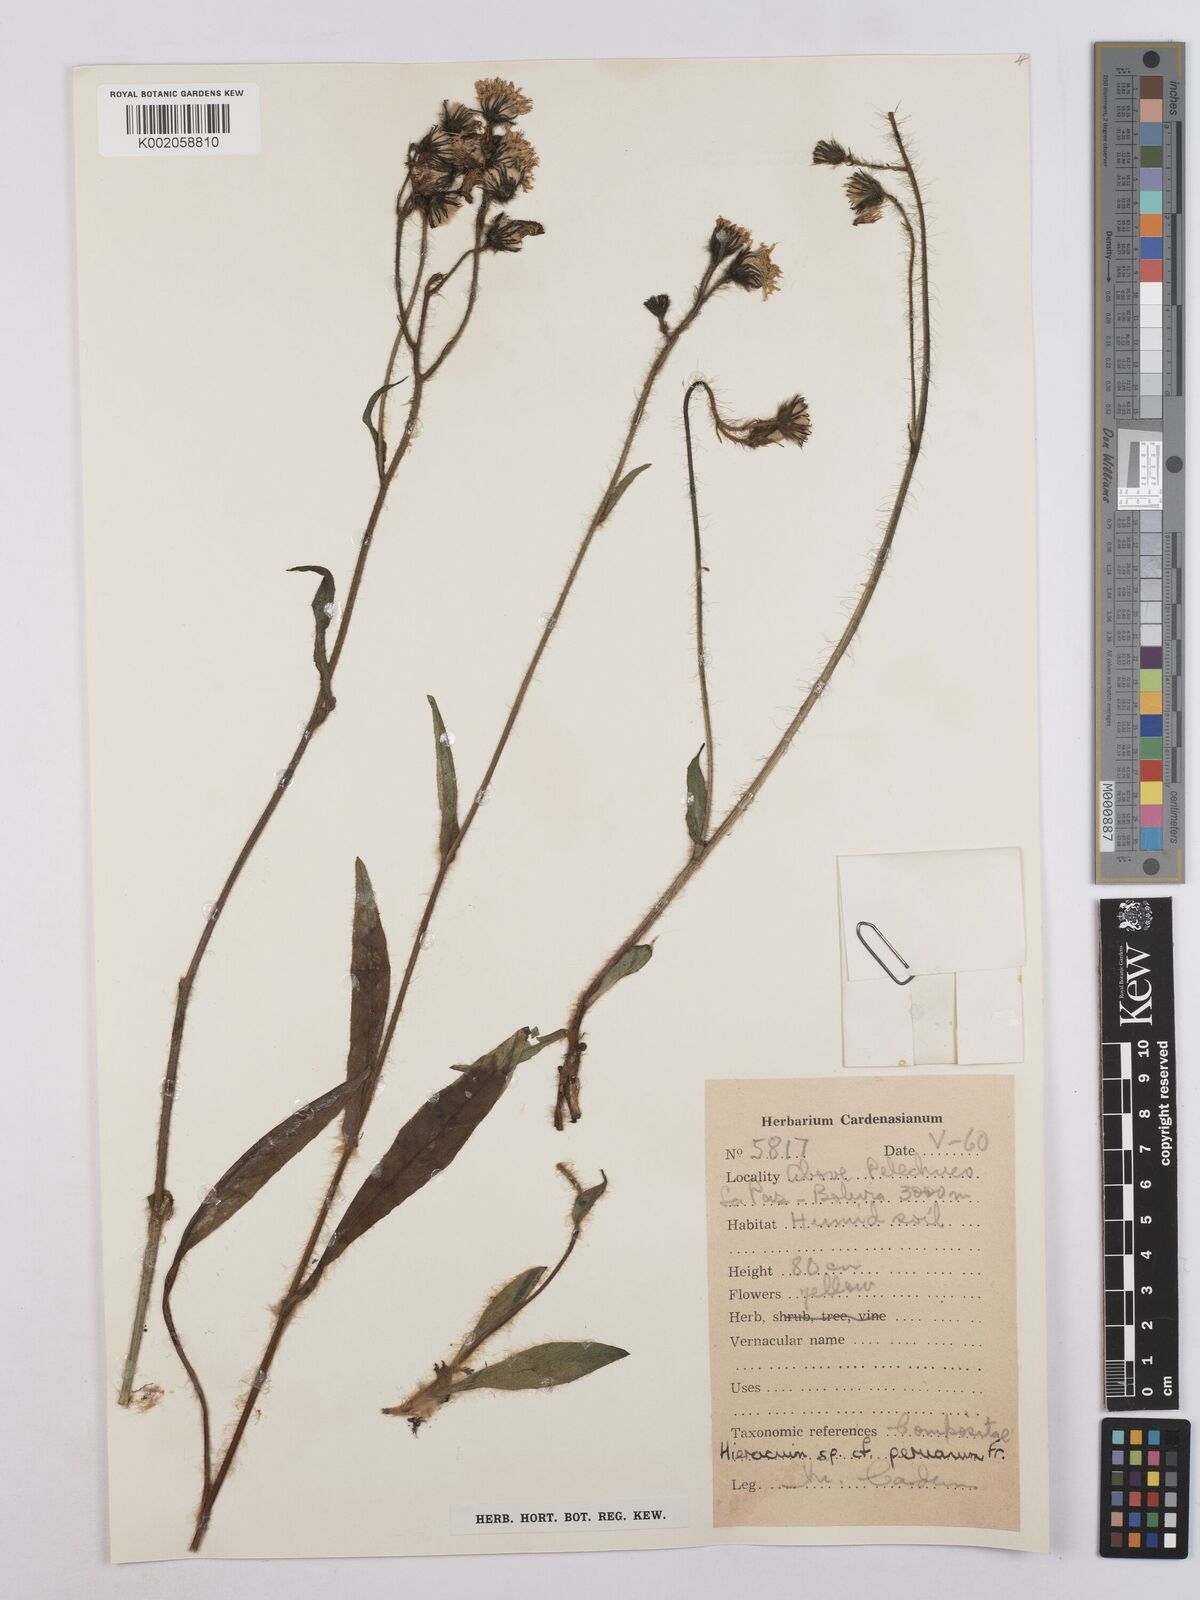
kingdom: Plantae
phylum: Tracheophyta
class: Magnoliopsida
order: Asterales
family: Asteraceae
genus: Hieracium
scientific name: Hieracium peruanum
